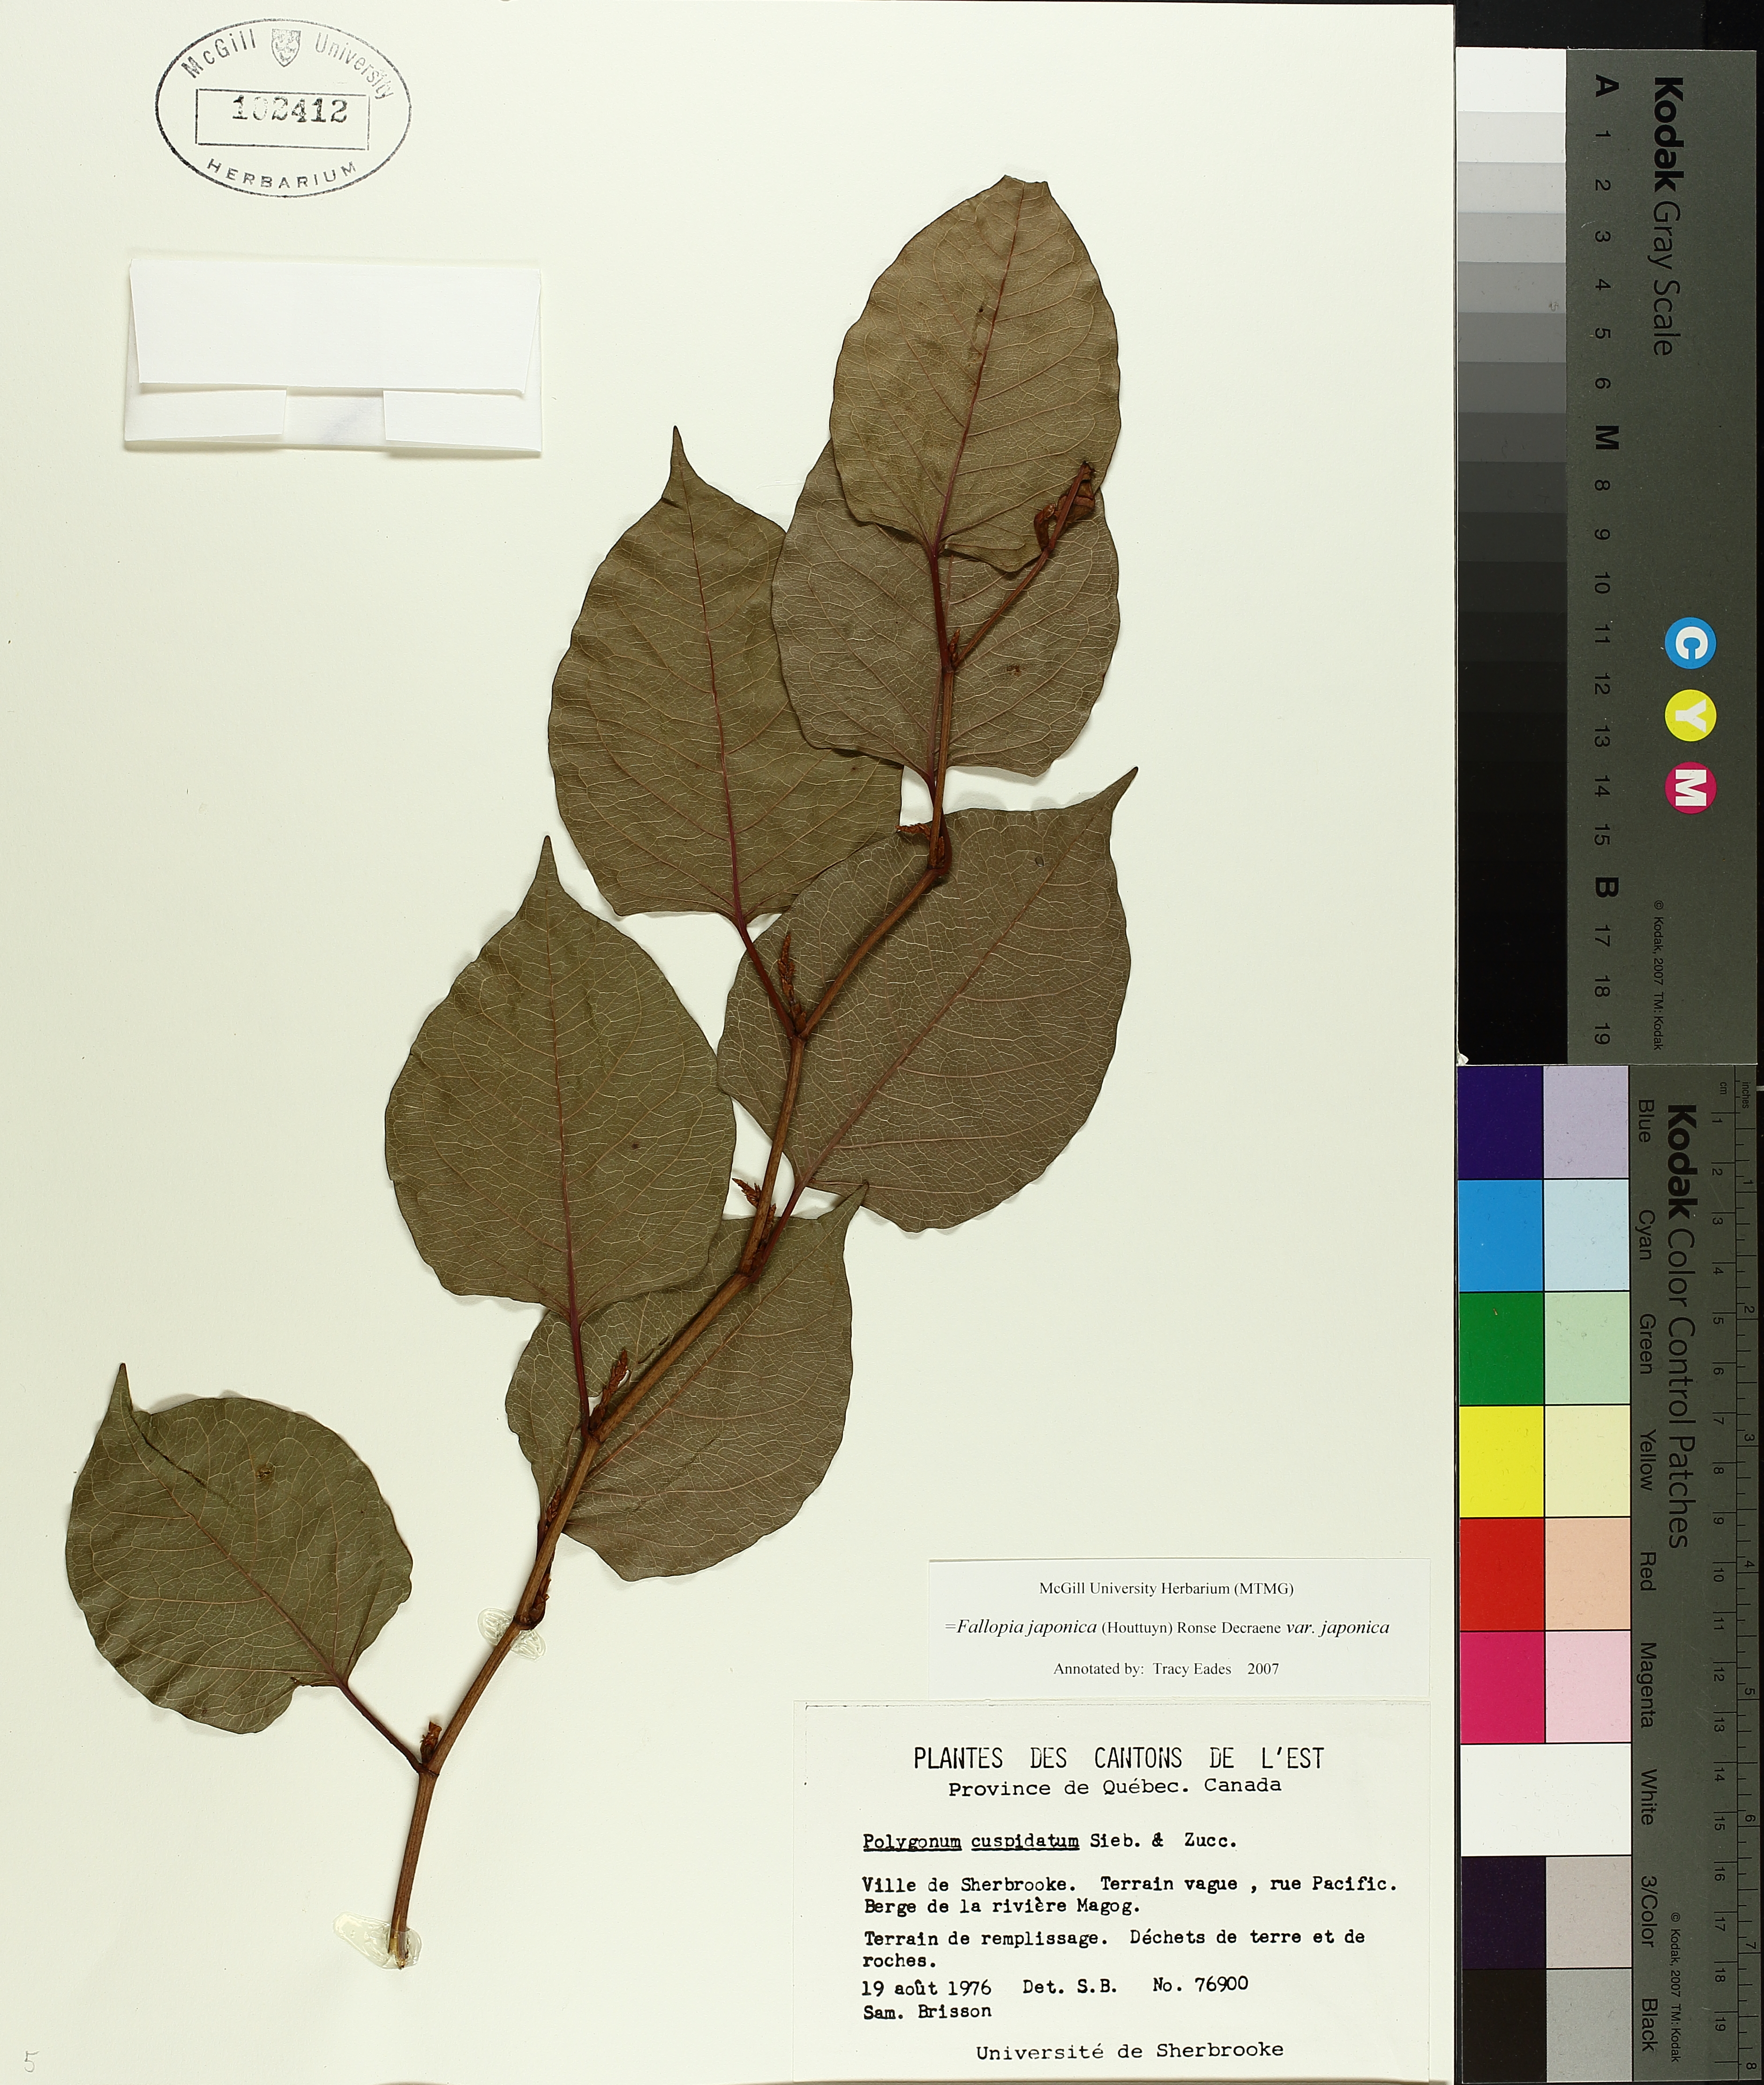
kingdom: Plantae
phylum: Tracheophyta
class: Magnoliopsida
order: Caryophyllales
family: Polygonaceae
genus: Reynoutria
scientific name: Reynoutria japonica
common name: Japanese knotweed
